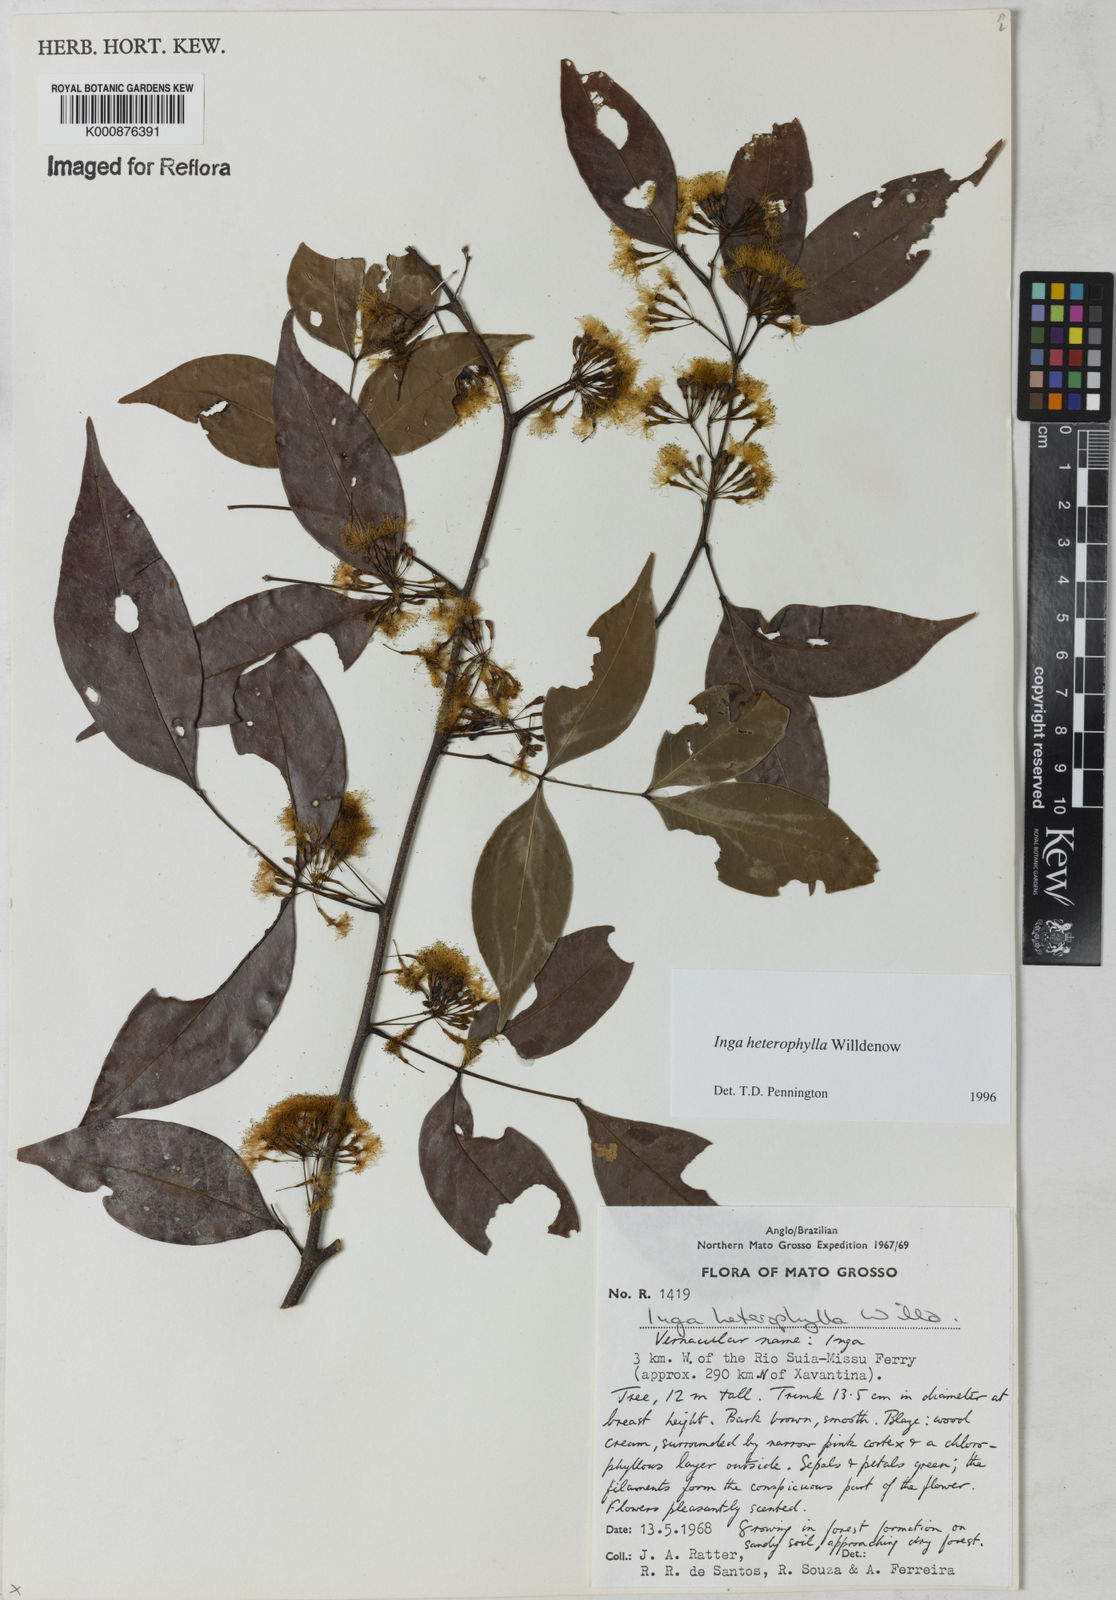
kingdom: Plantae
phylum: Tracheophyta
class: Magnoliopsida
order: Fabales
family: Fabaceae
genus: Inga
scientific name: Inga heterophylla
